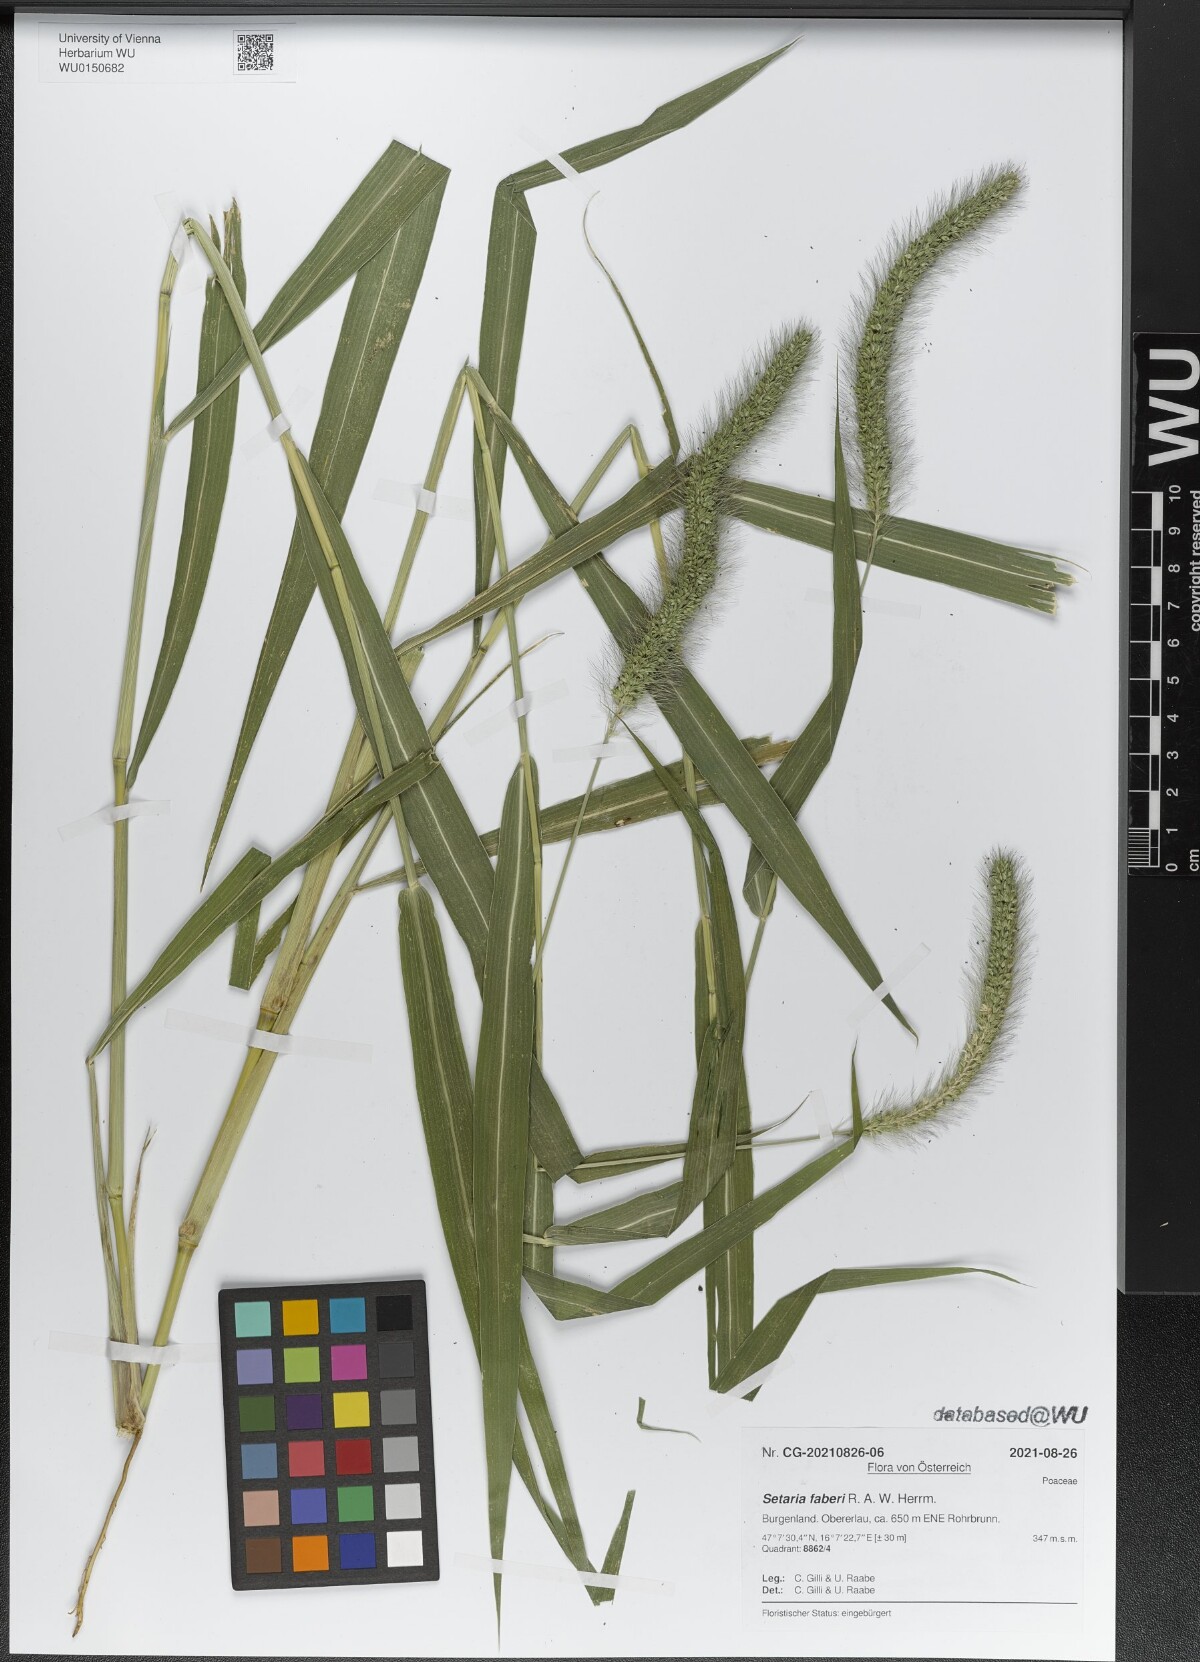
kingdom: Plantae
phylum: Tracheophyta
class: Liliopsida
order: Poales
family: Poaceae
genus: Setaria
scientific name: Setaria faberi
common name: Nodding bristle-grass
